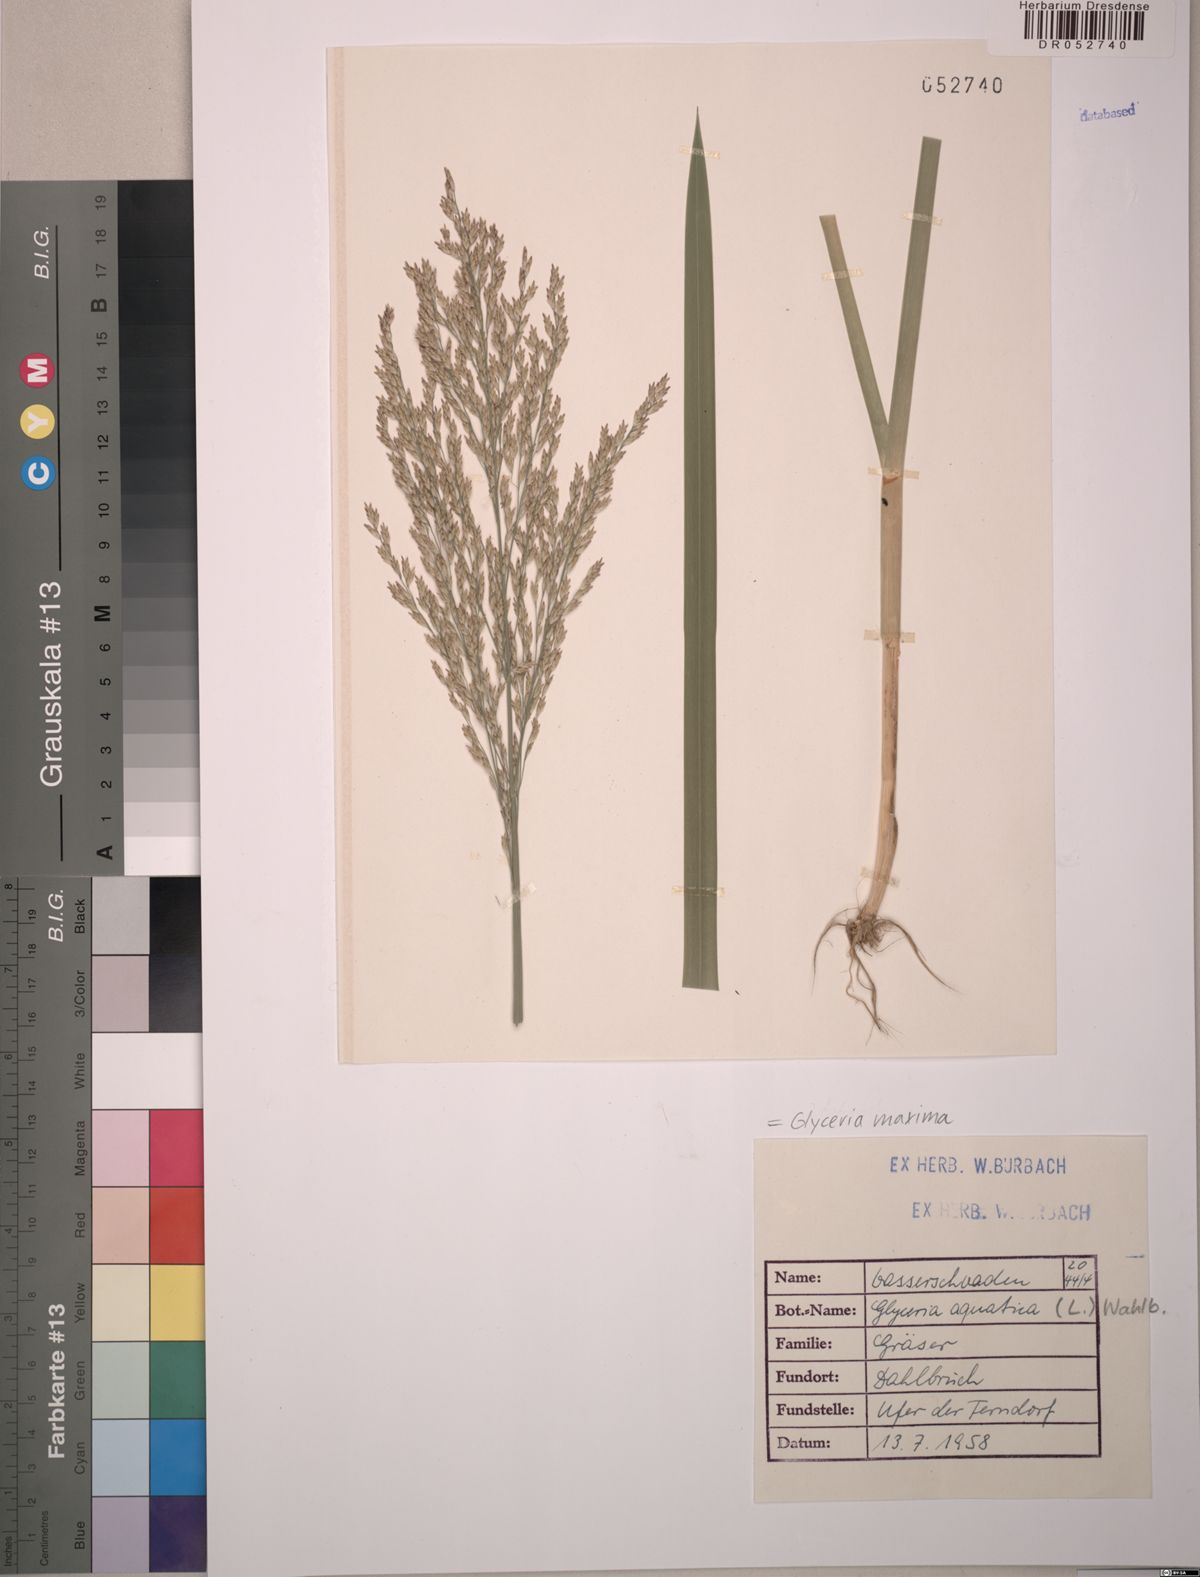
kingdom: Plantae
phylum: Tracheophyta
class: Liliopsida
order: Poales
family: Poaceae
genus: Glyceria
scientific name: Glyceria maxima
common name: Reed mannagrass
